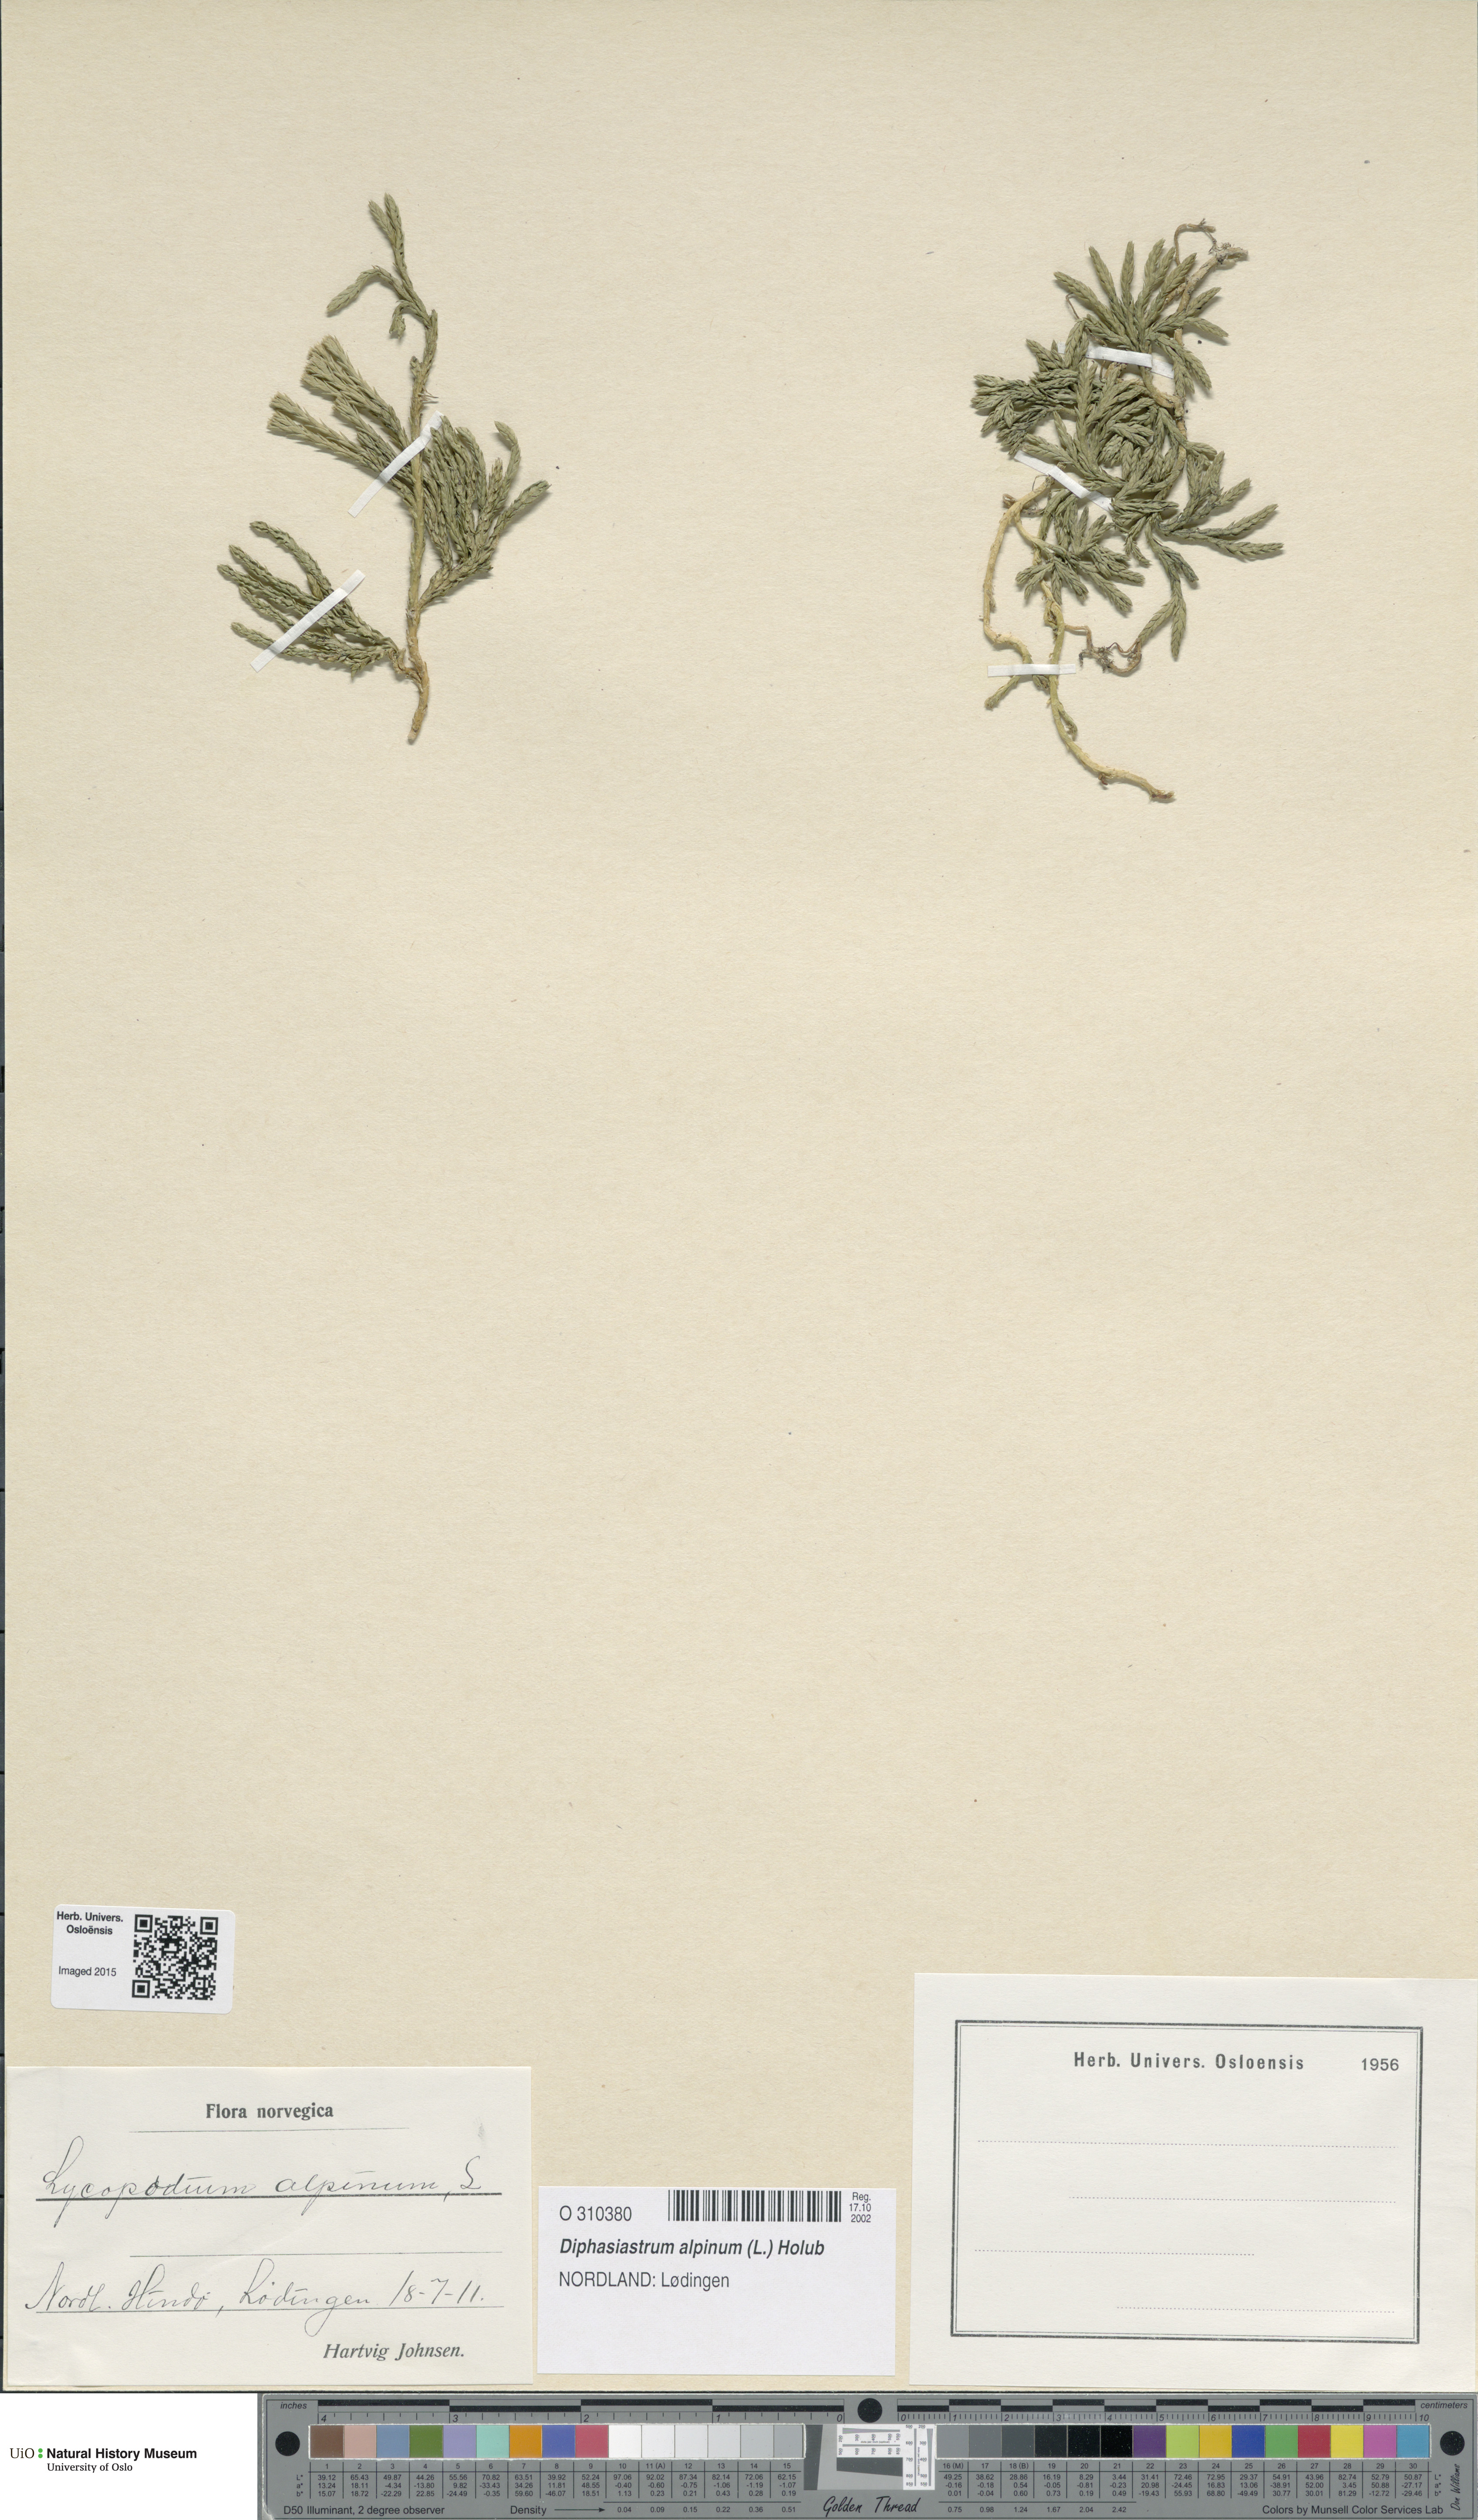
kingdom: Plantae
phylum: Tracheophyta
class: Lycopodiopsida
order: Lycopodiales
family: Lycopodiaceae
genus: Diphasiastrum
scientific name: Diphasiastrum alpinum
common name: Alpine clubmoss
